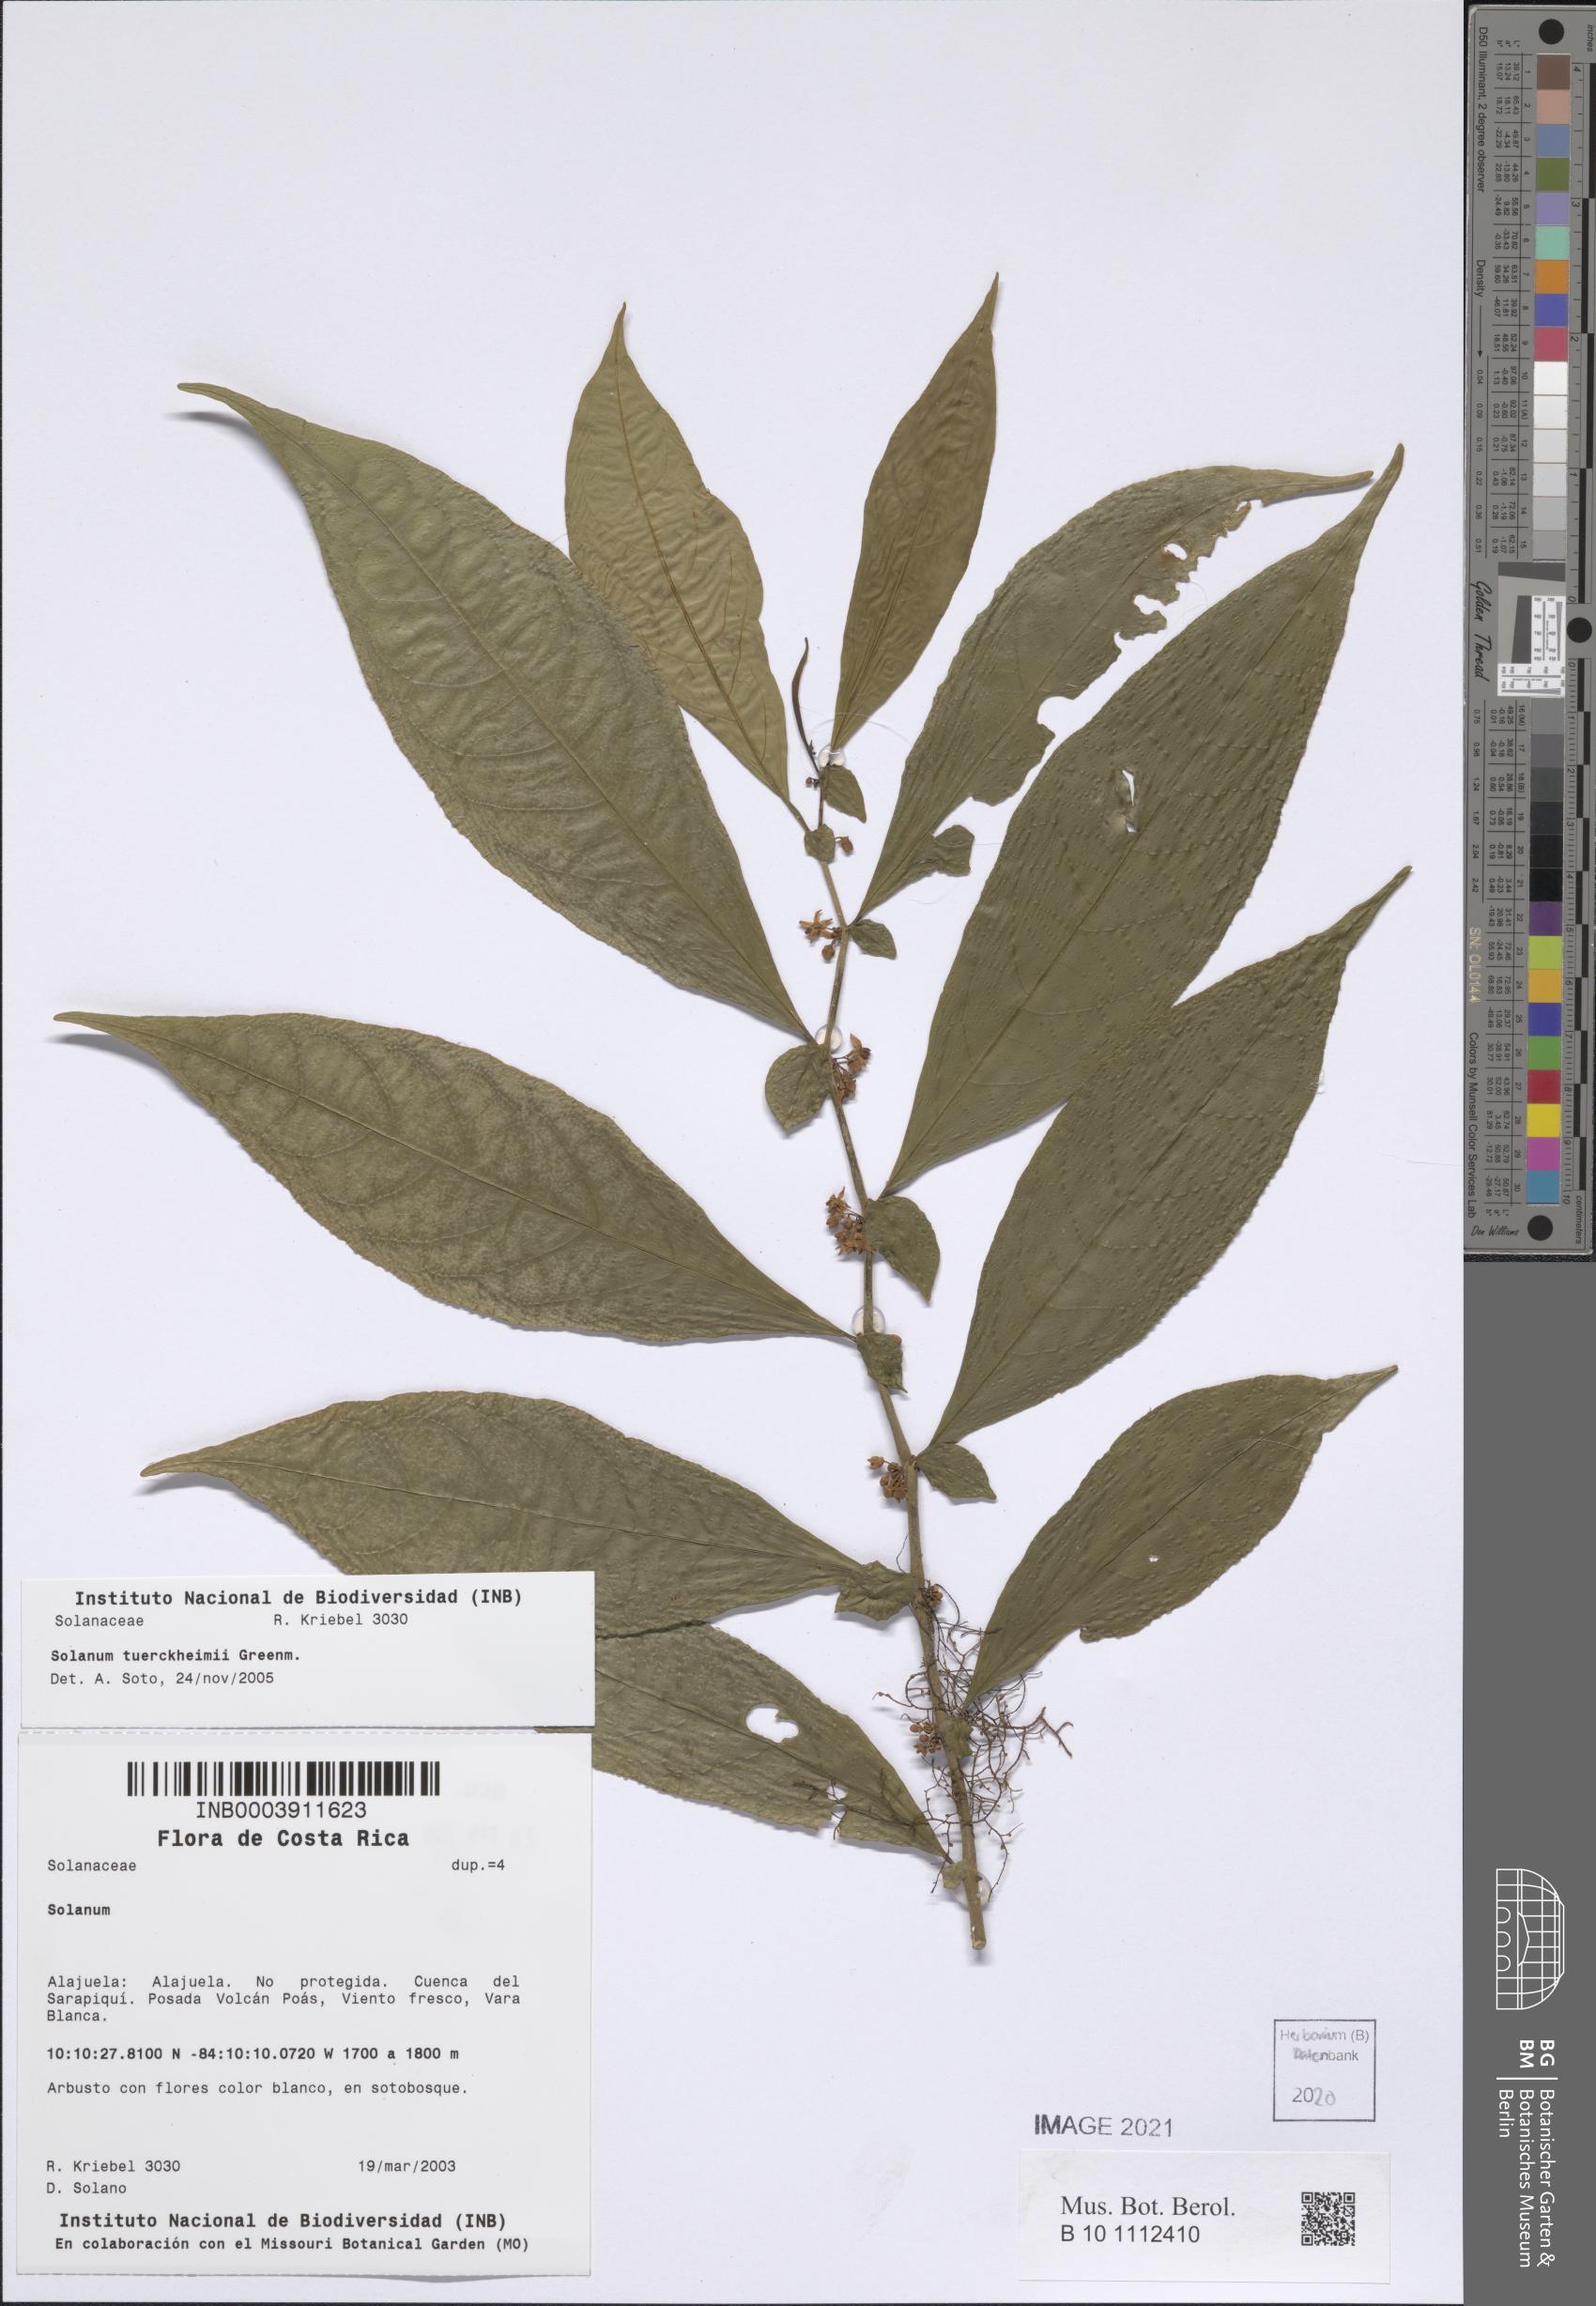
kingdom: Plantae
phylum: Tracheophyta
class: Magnoliopsida
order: Solanales
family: Solanaceae
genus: Solanum
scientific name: Solanum tuerckheimii
